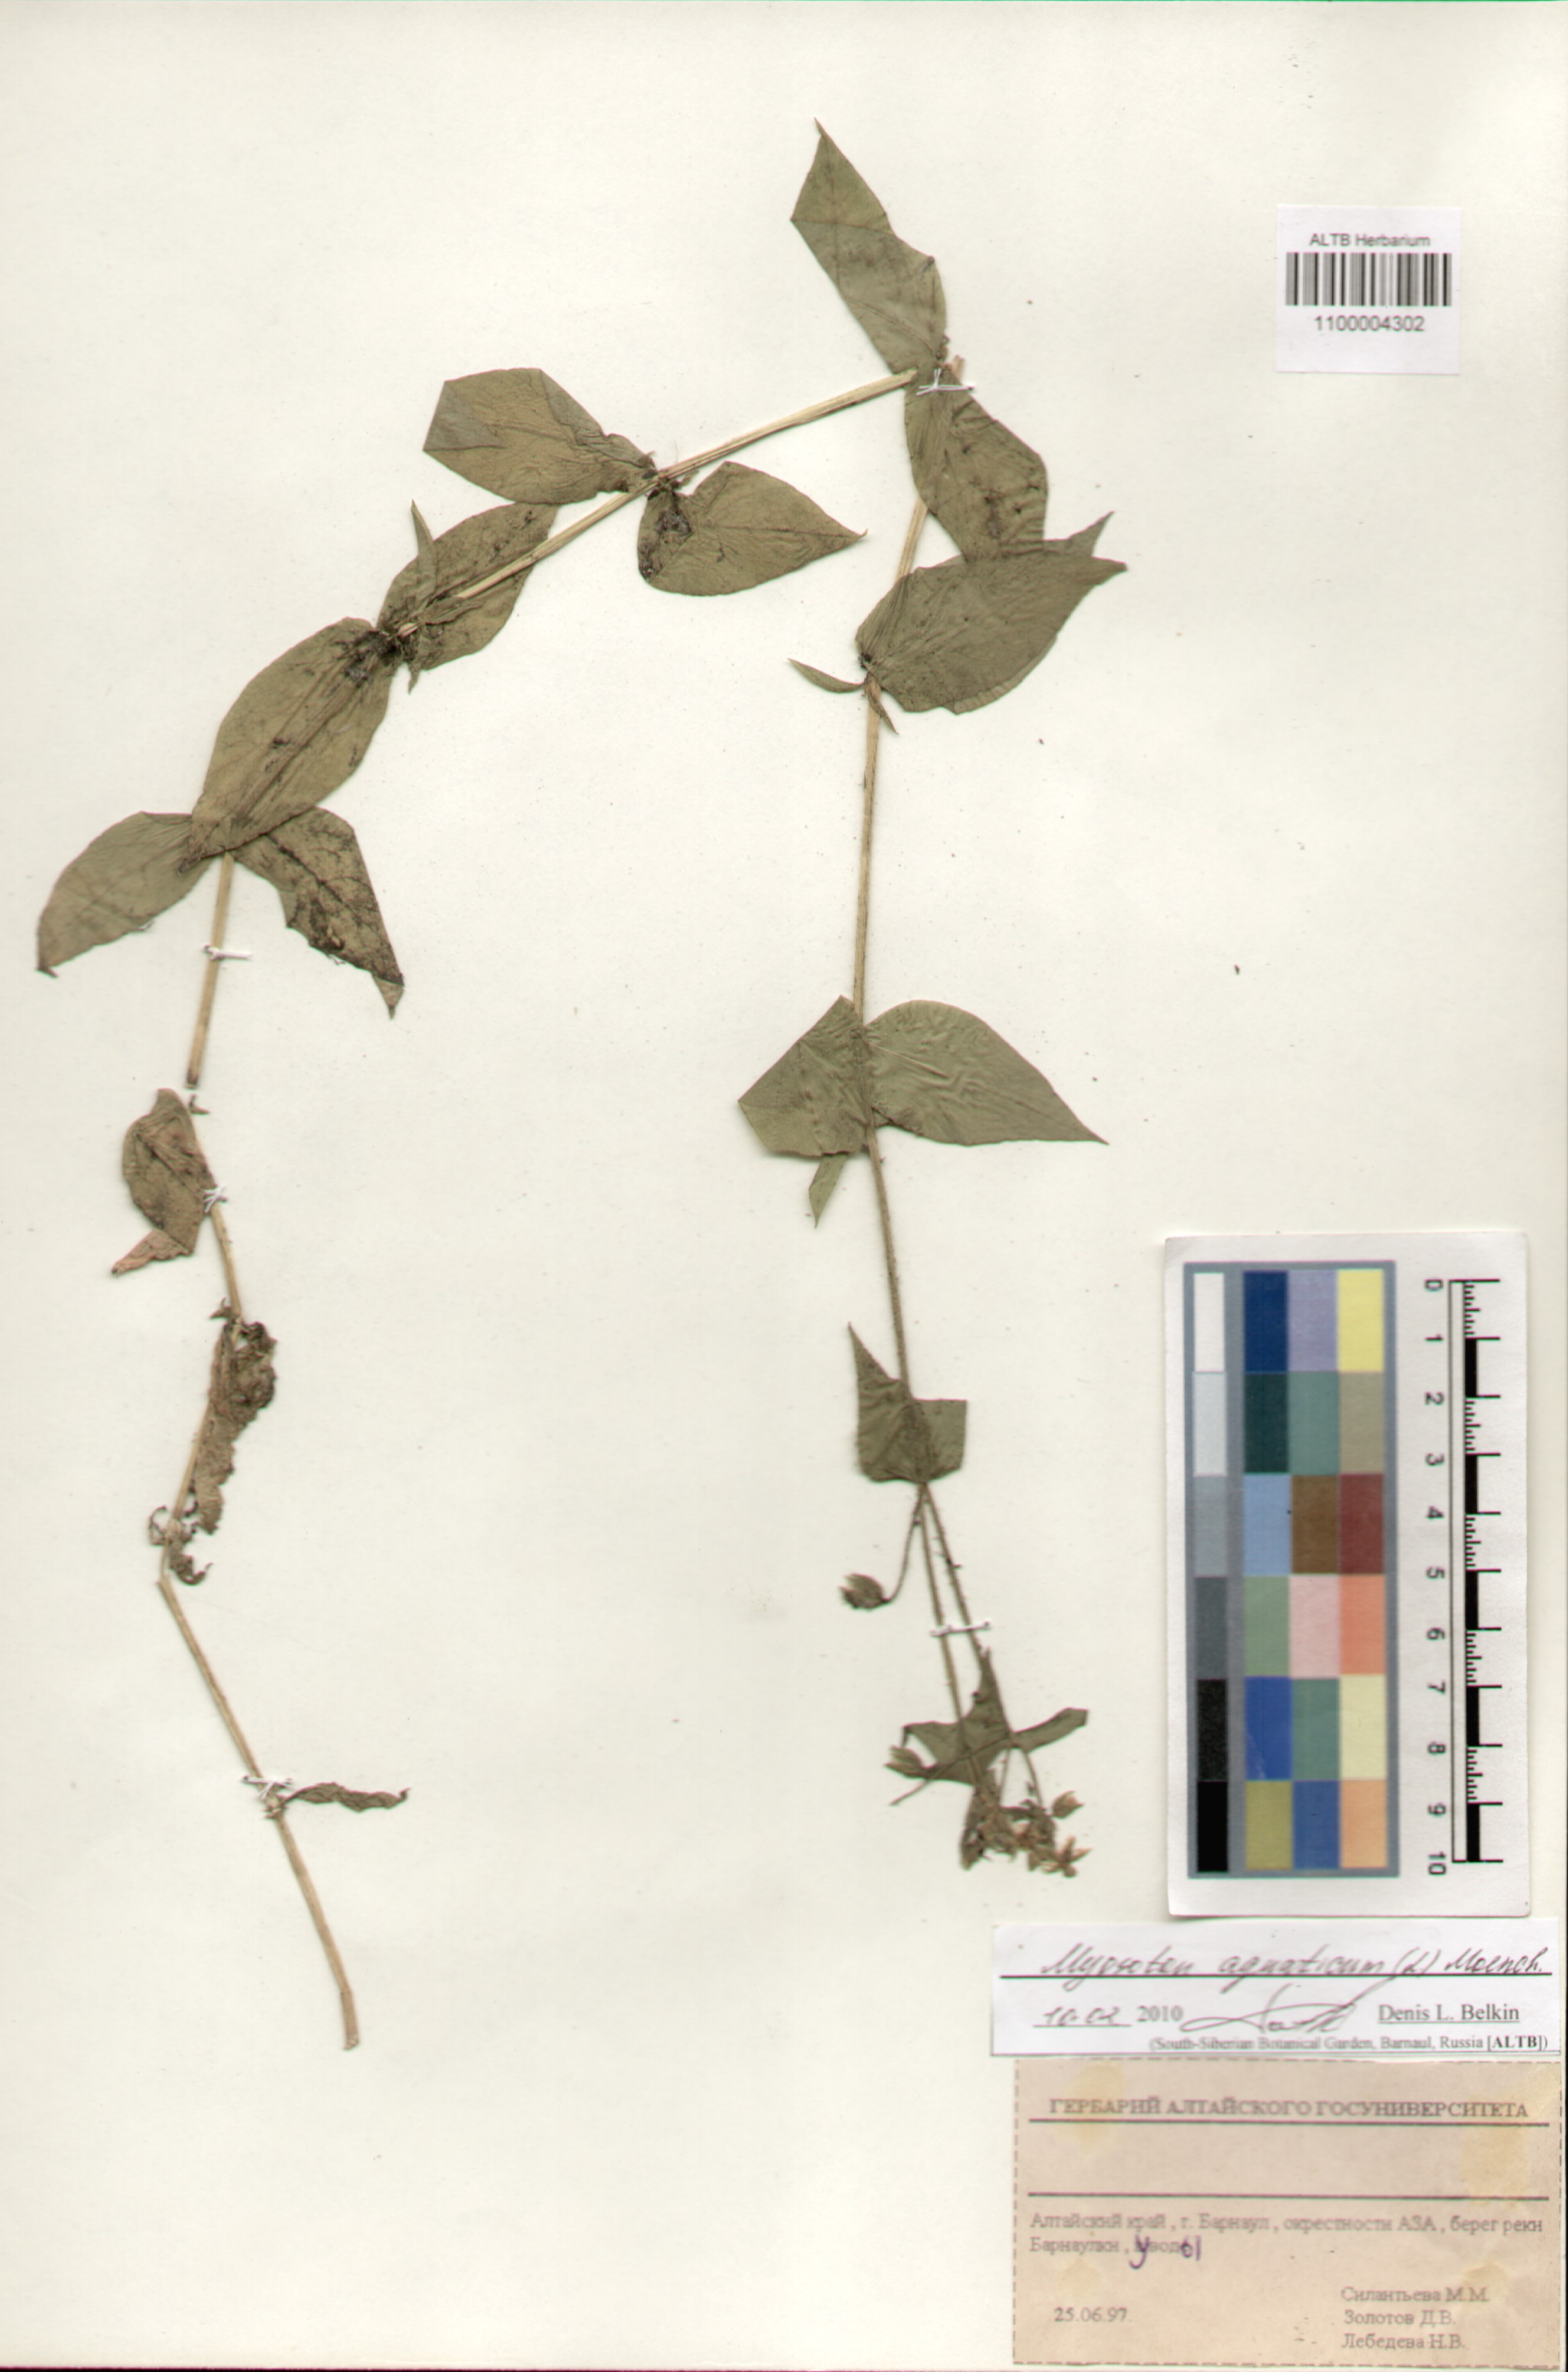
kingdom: Plantae
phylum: Tracheophyta
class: Magnoliopsida
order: Caryophyllales
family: Caryophyllaceae
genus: Stellaria
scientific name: Stellaria aquatica
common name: Water chickweed
